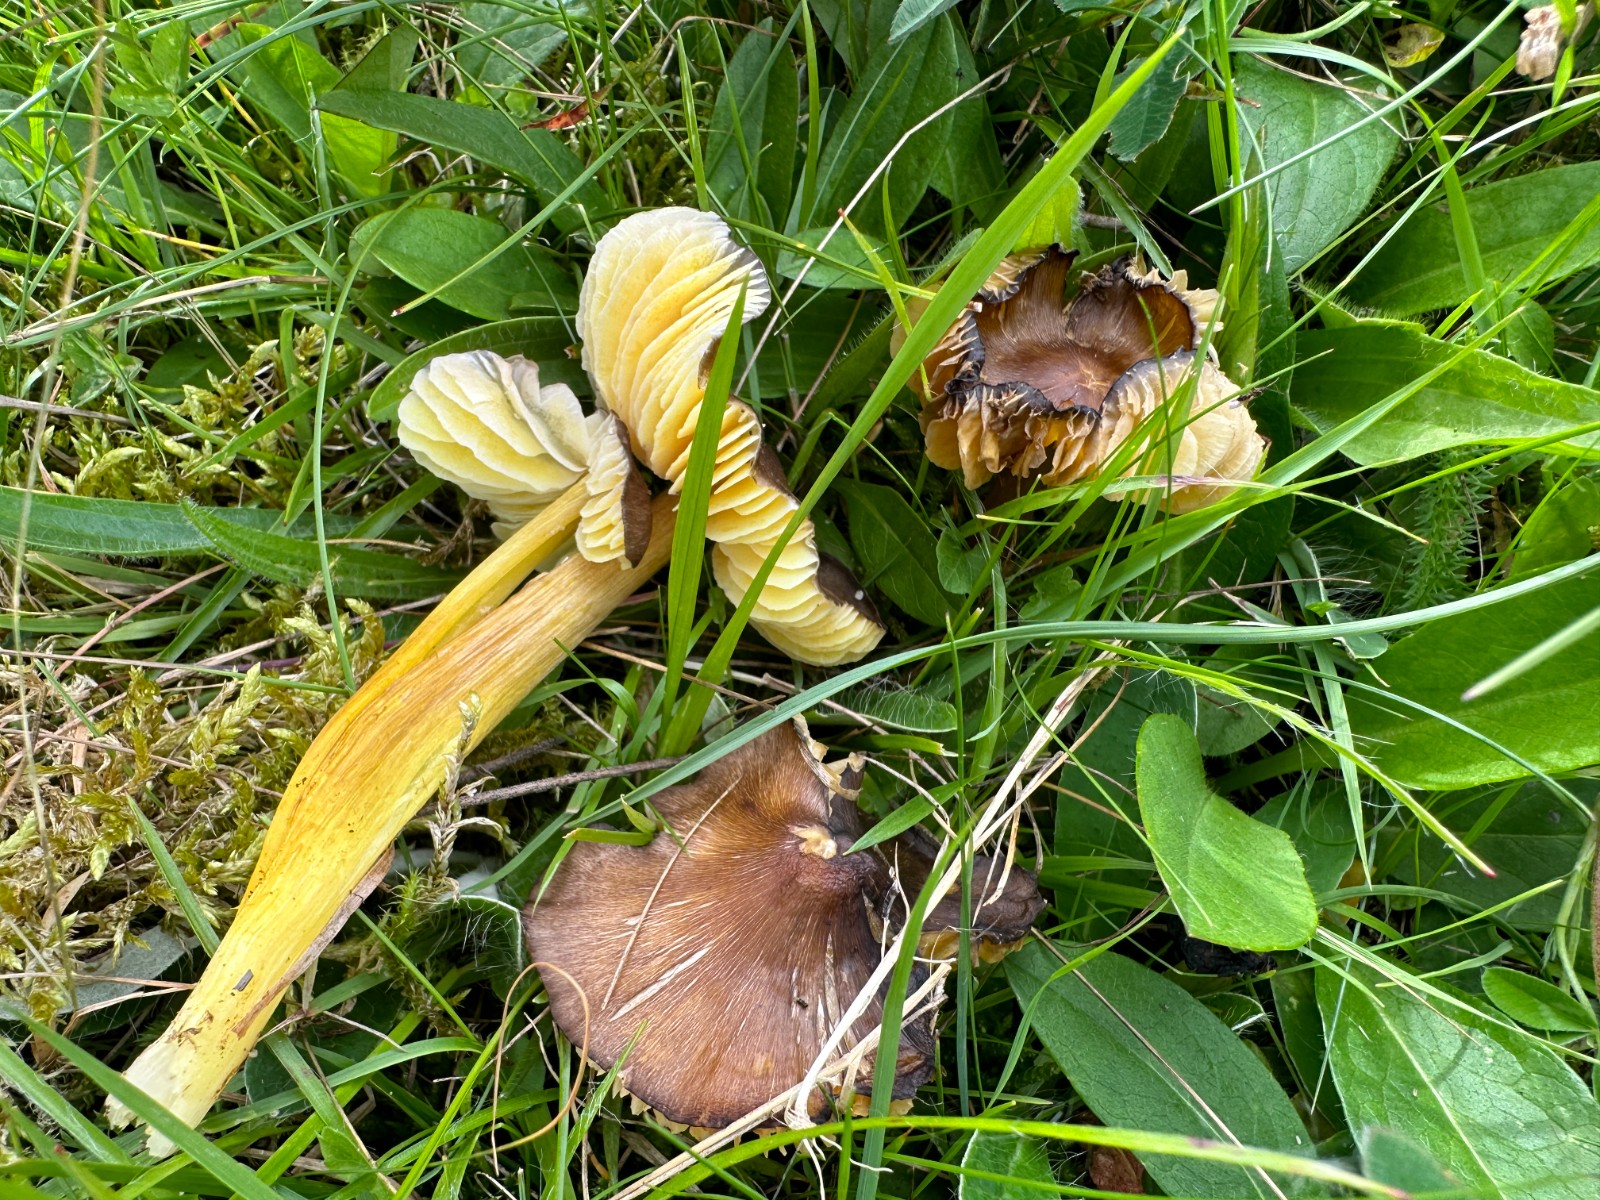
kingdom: Fungi
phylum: Basidiomycota
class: Agaricomycetes
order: Agaricales
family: Hygrophoraceae
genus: Hygrocybe
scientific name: Hygrocybe spadicea
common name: daddelbrun vokshat
